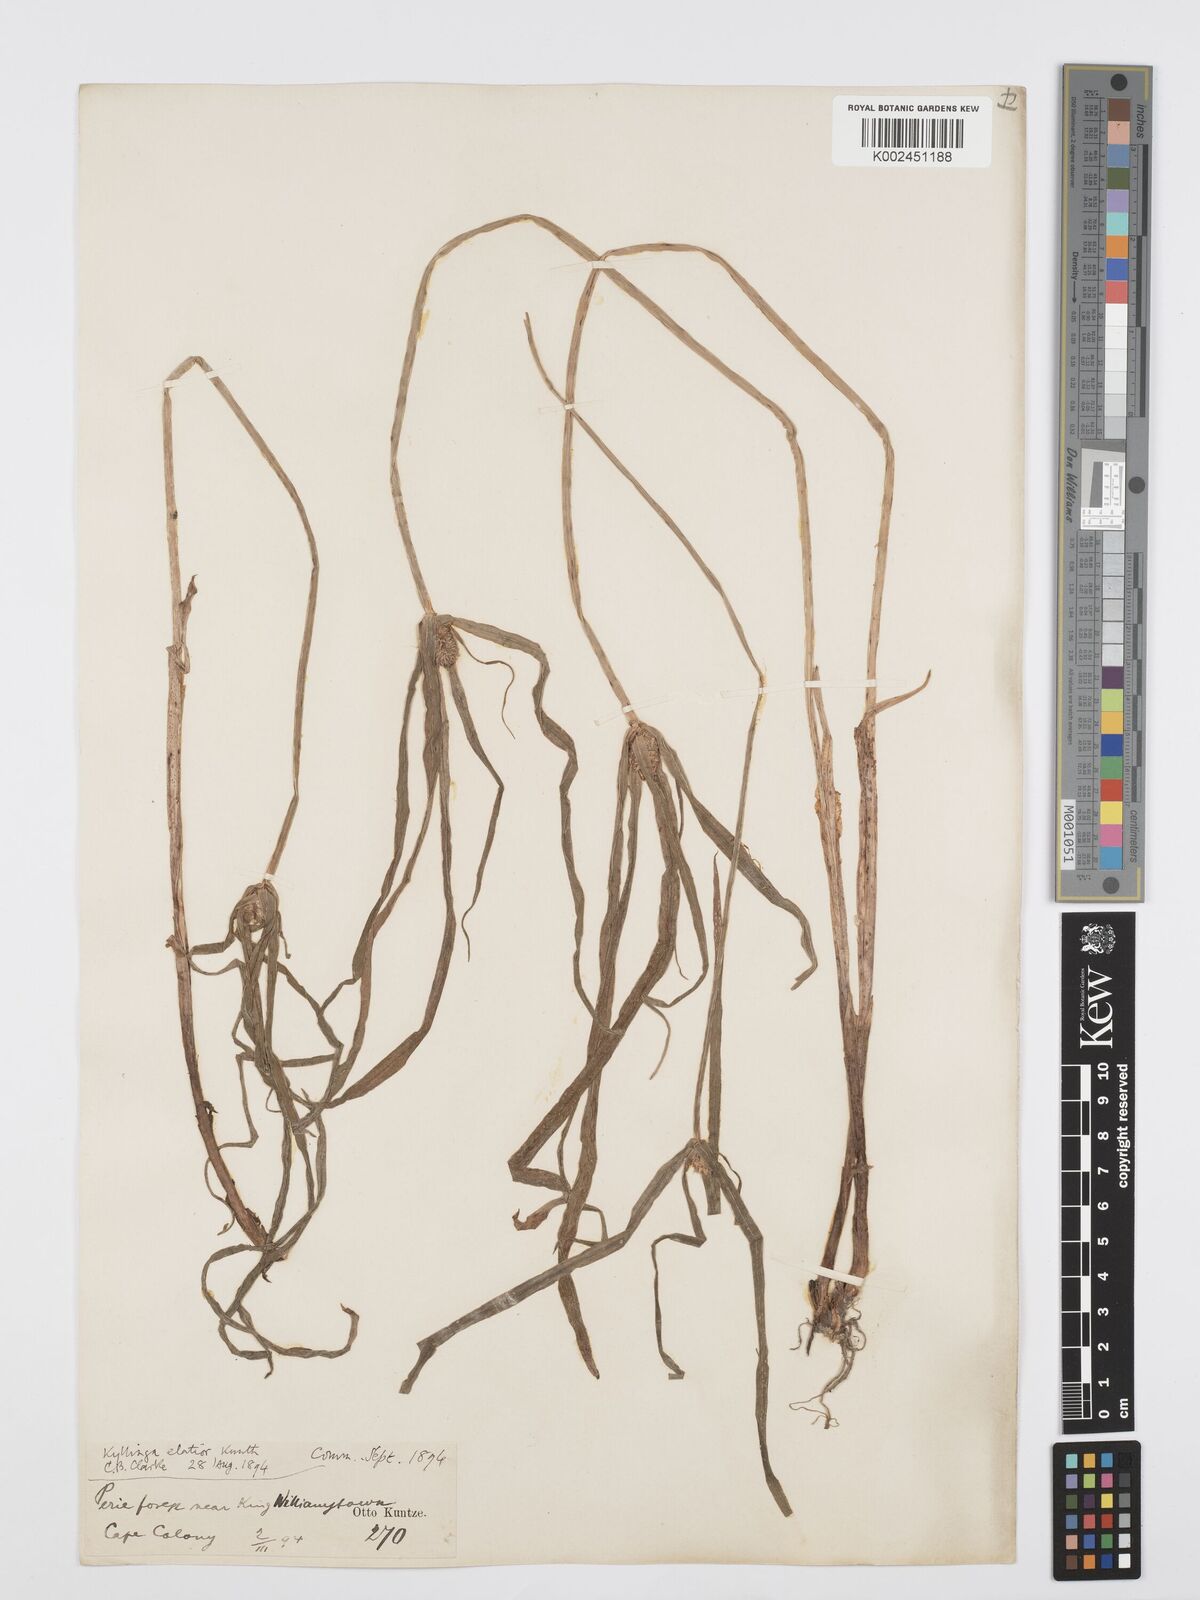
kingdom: Plantae
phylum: Tracheophyta
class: Liliopsida
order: Poales
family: Cyperaceae
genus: Cyperus
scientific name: Cyperus ruwenzoriensis
